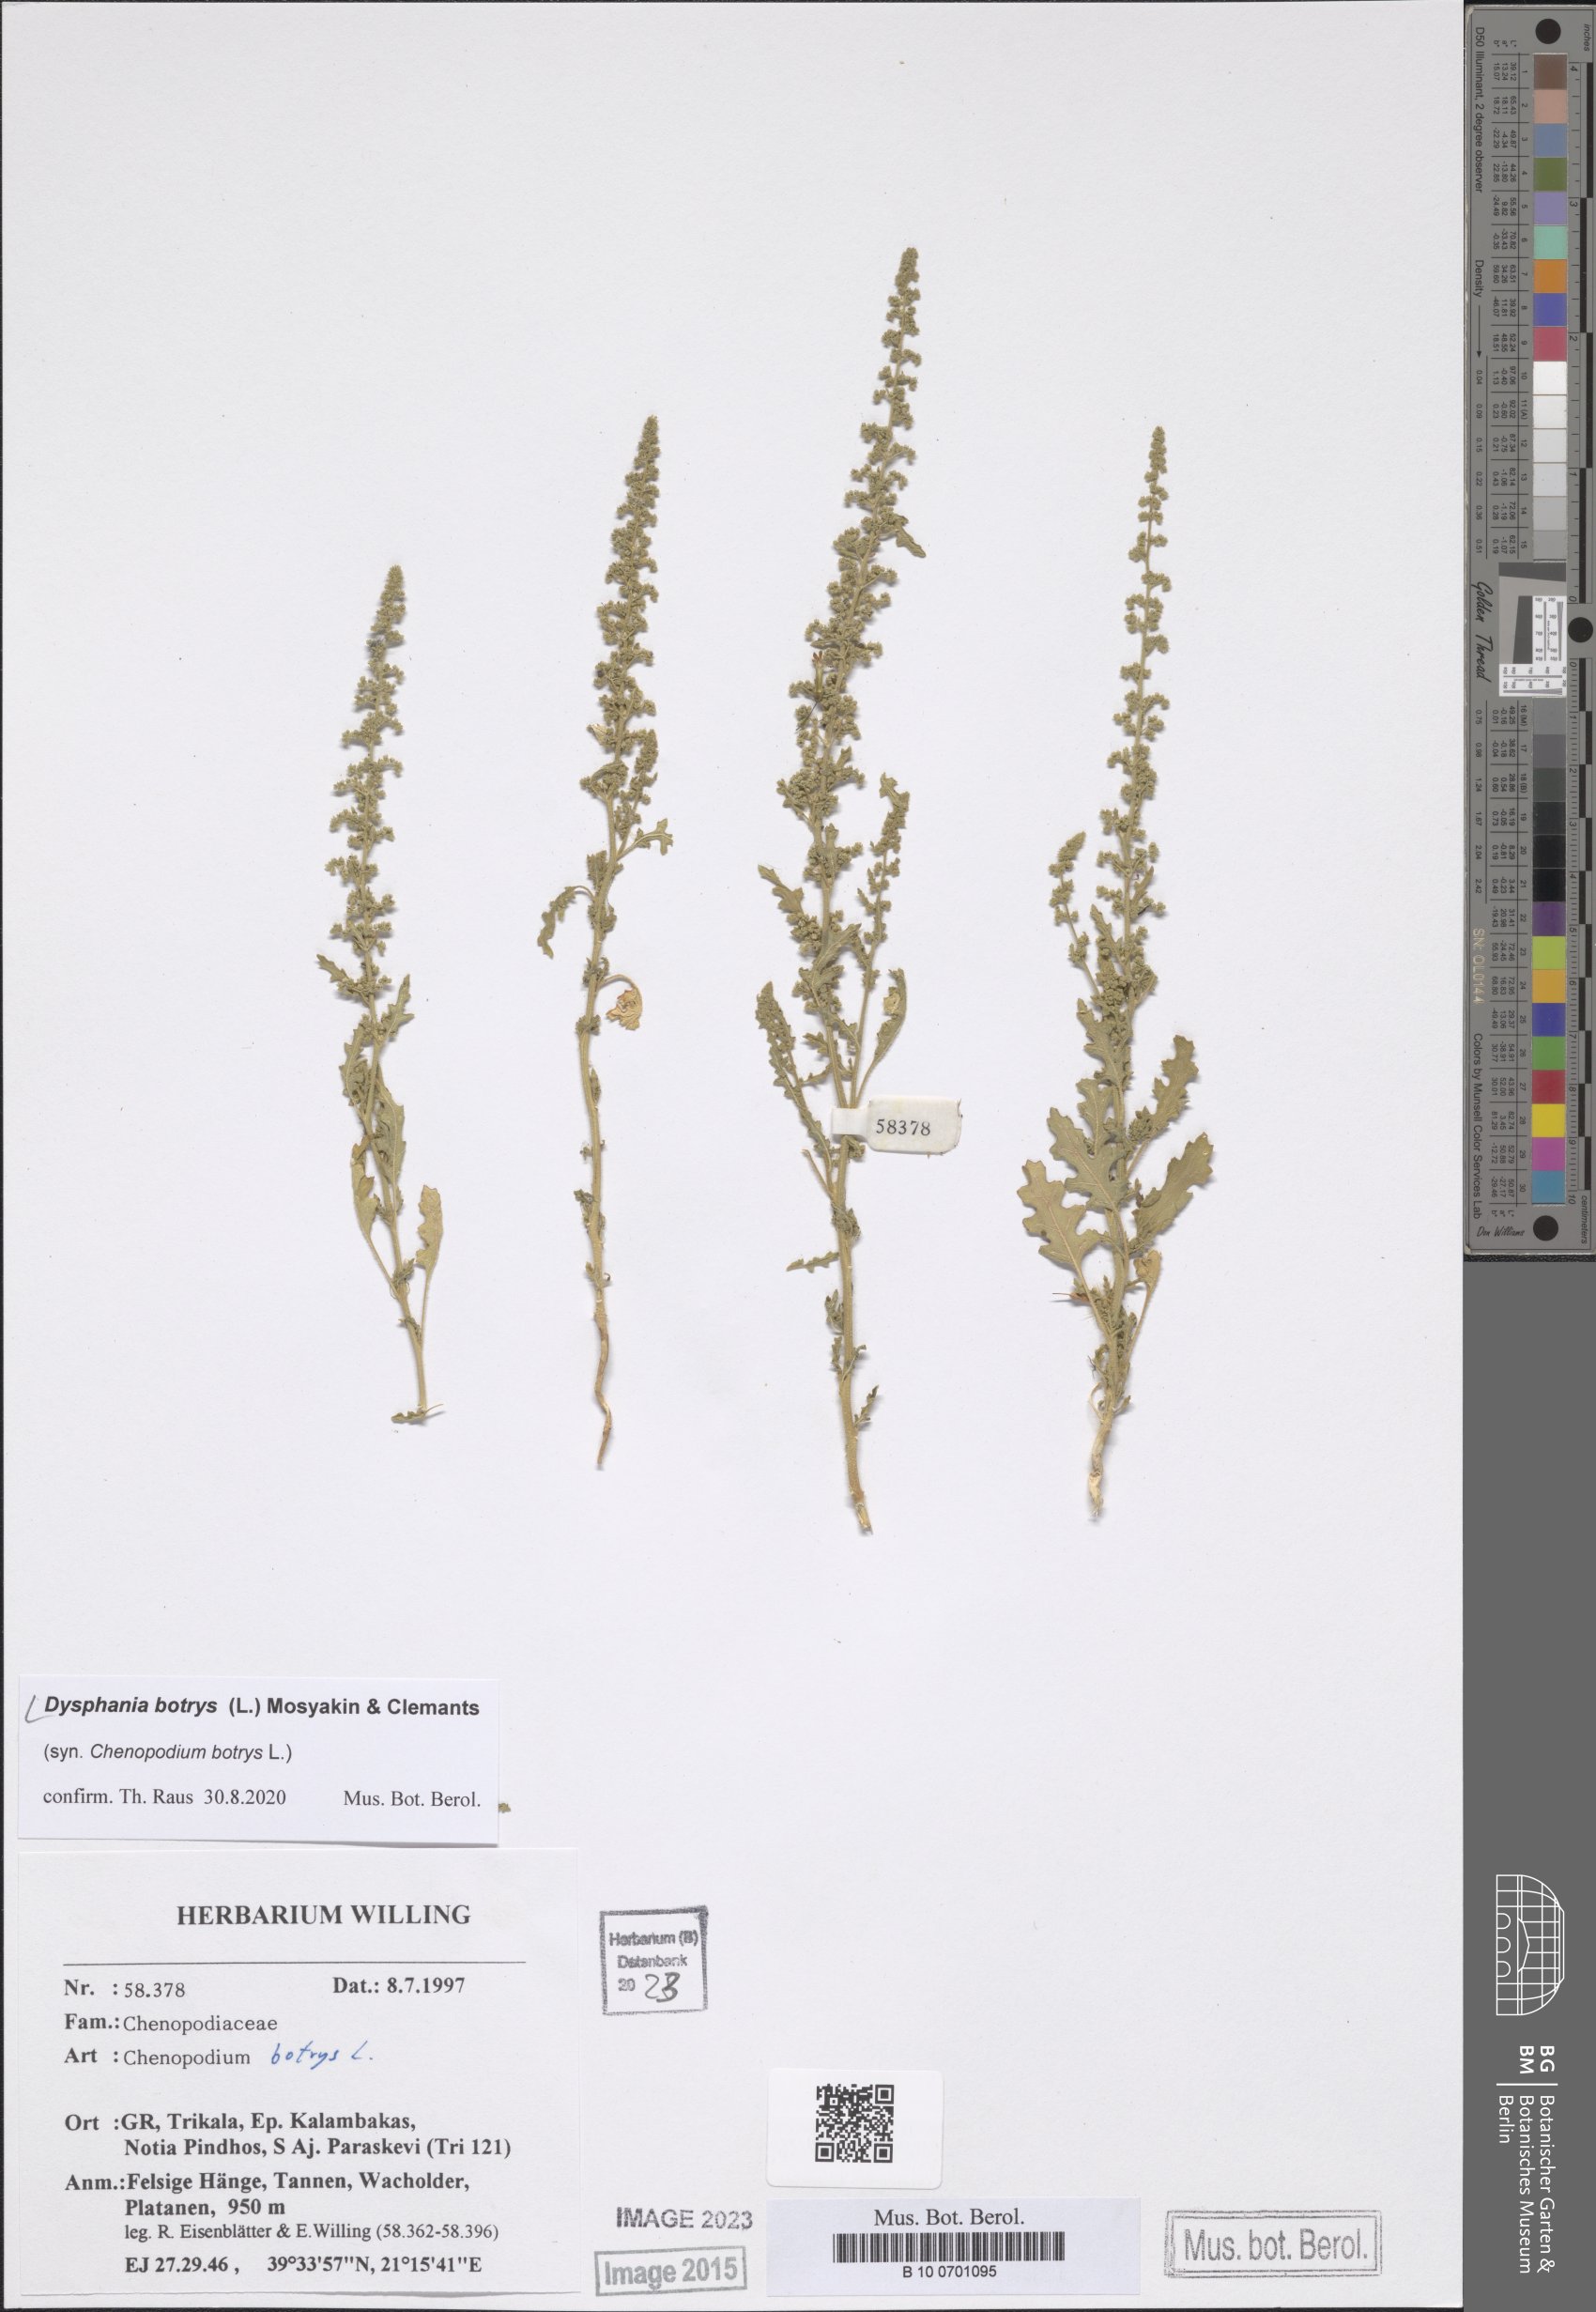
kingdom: Plantae
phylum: Tracheophyta
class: Magnoliopsida
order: Caryophyllales
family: Amaranthaceae
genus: Dysphania
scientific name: Dysphania botrys
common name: Feather-geranium
